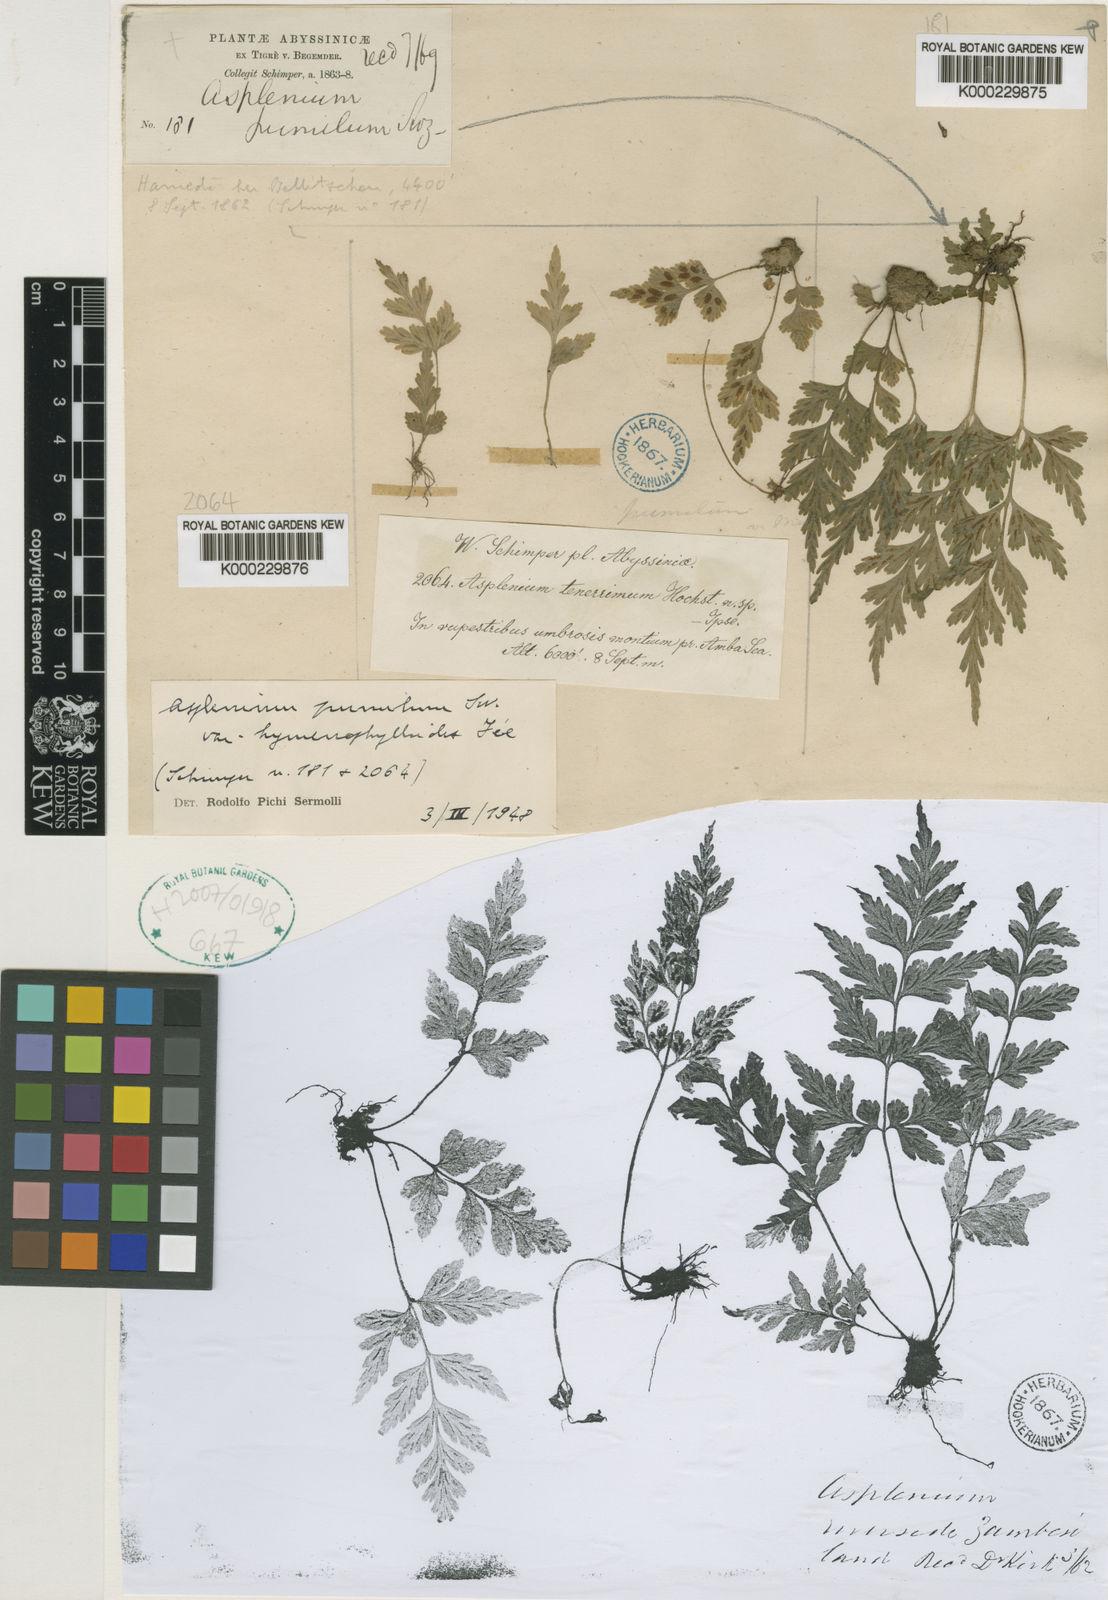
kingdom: Plantae
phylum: Tracheophyta
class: Polypodiopsida
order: Polypodiales
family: Aspleniaceae
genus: Asplenium
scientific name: Asplenium pumilum
